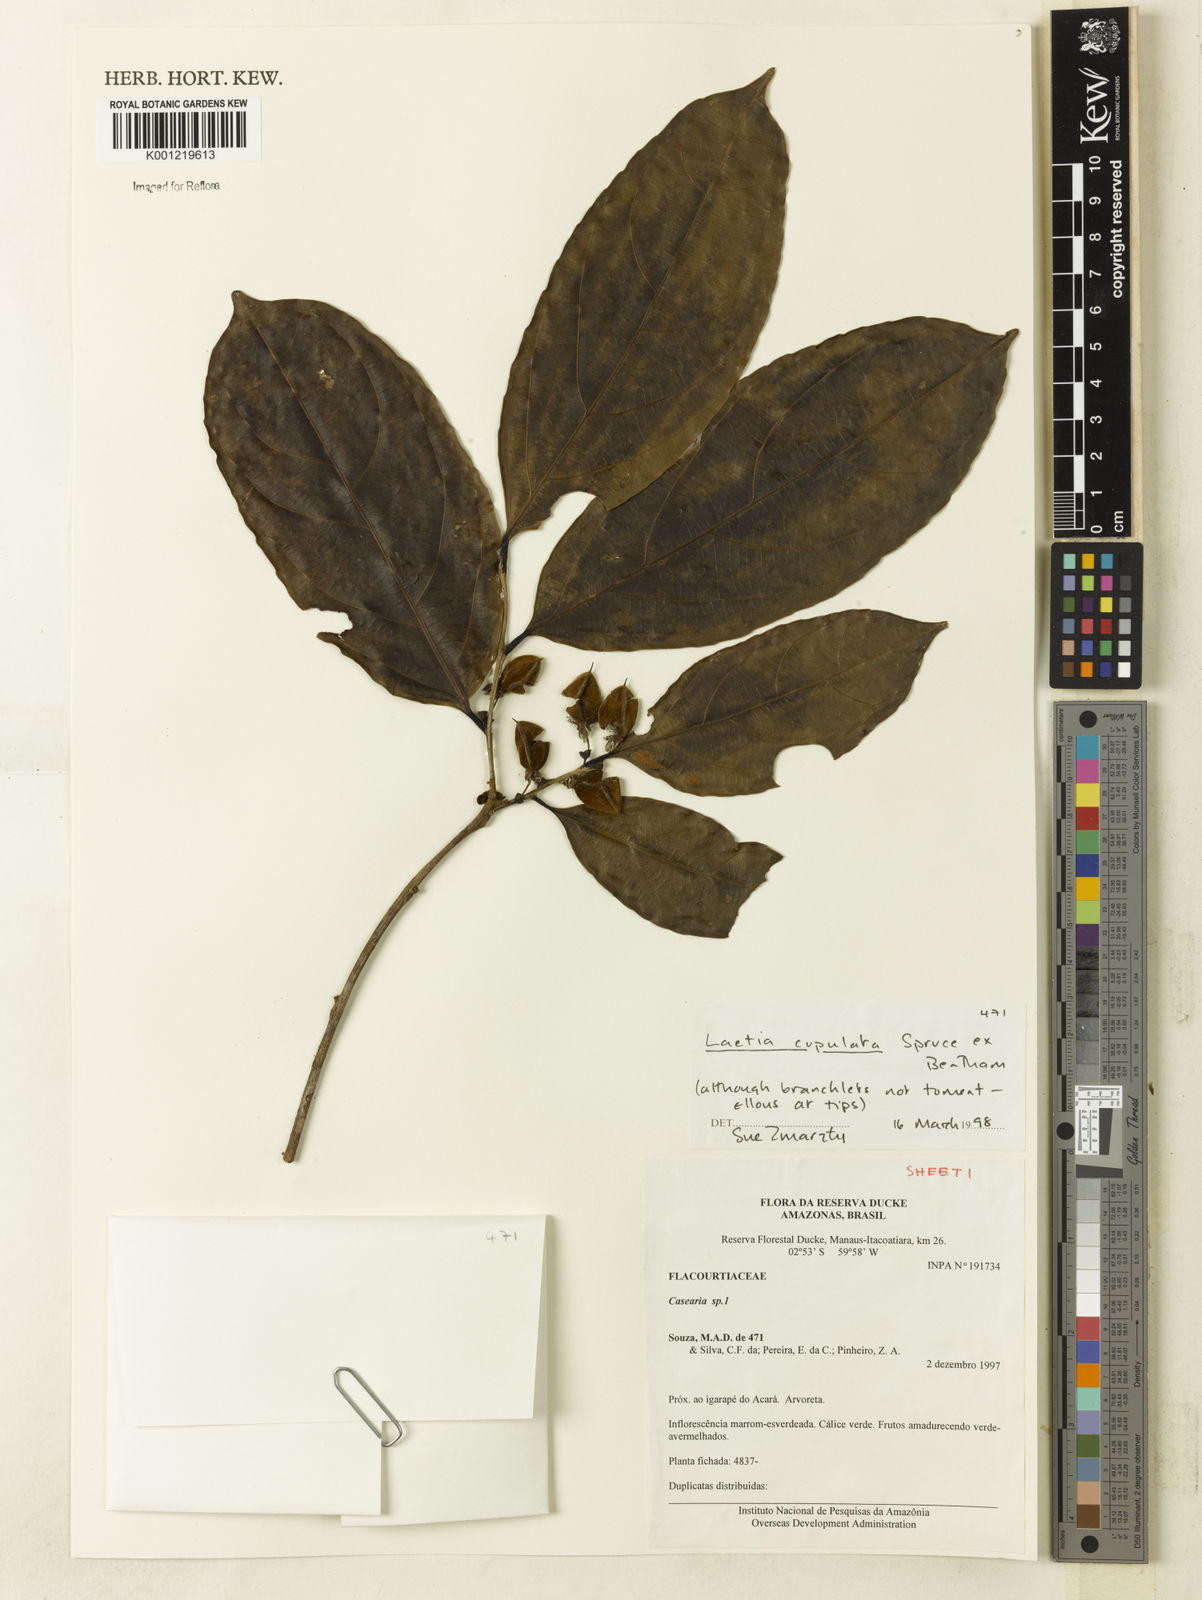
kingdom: Plantae
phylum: Tracheophyta
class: Magnoliopsida
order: Malpighiales
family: Salicaceae
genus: Irenodendron
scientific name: Irenodendron cupulatum
